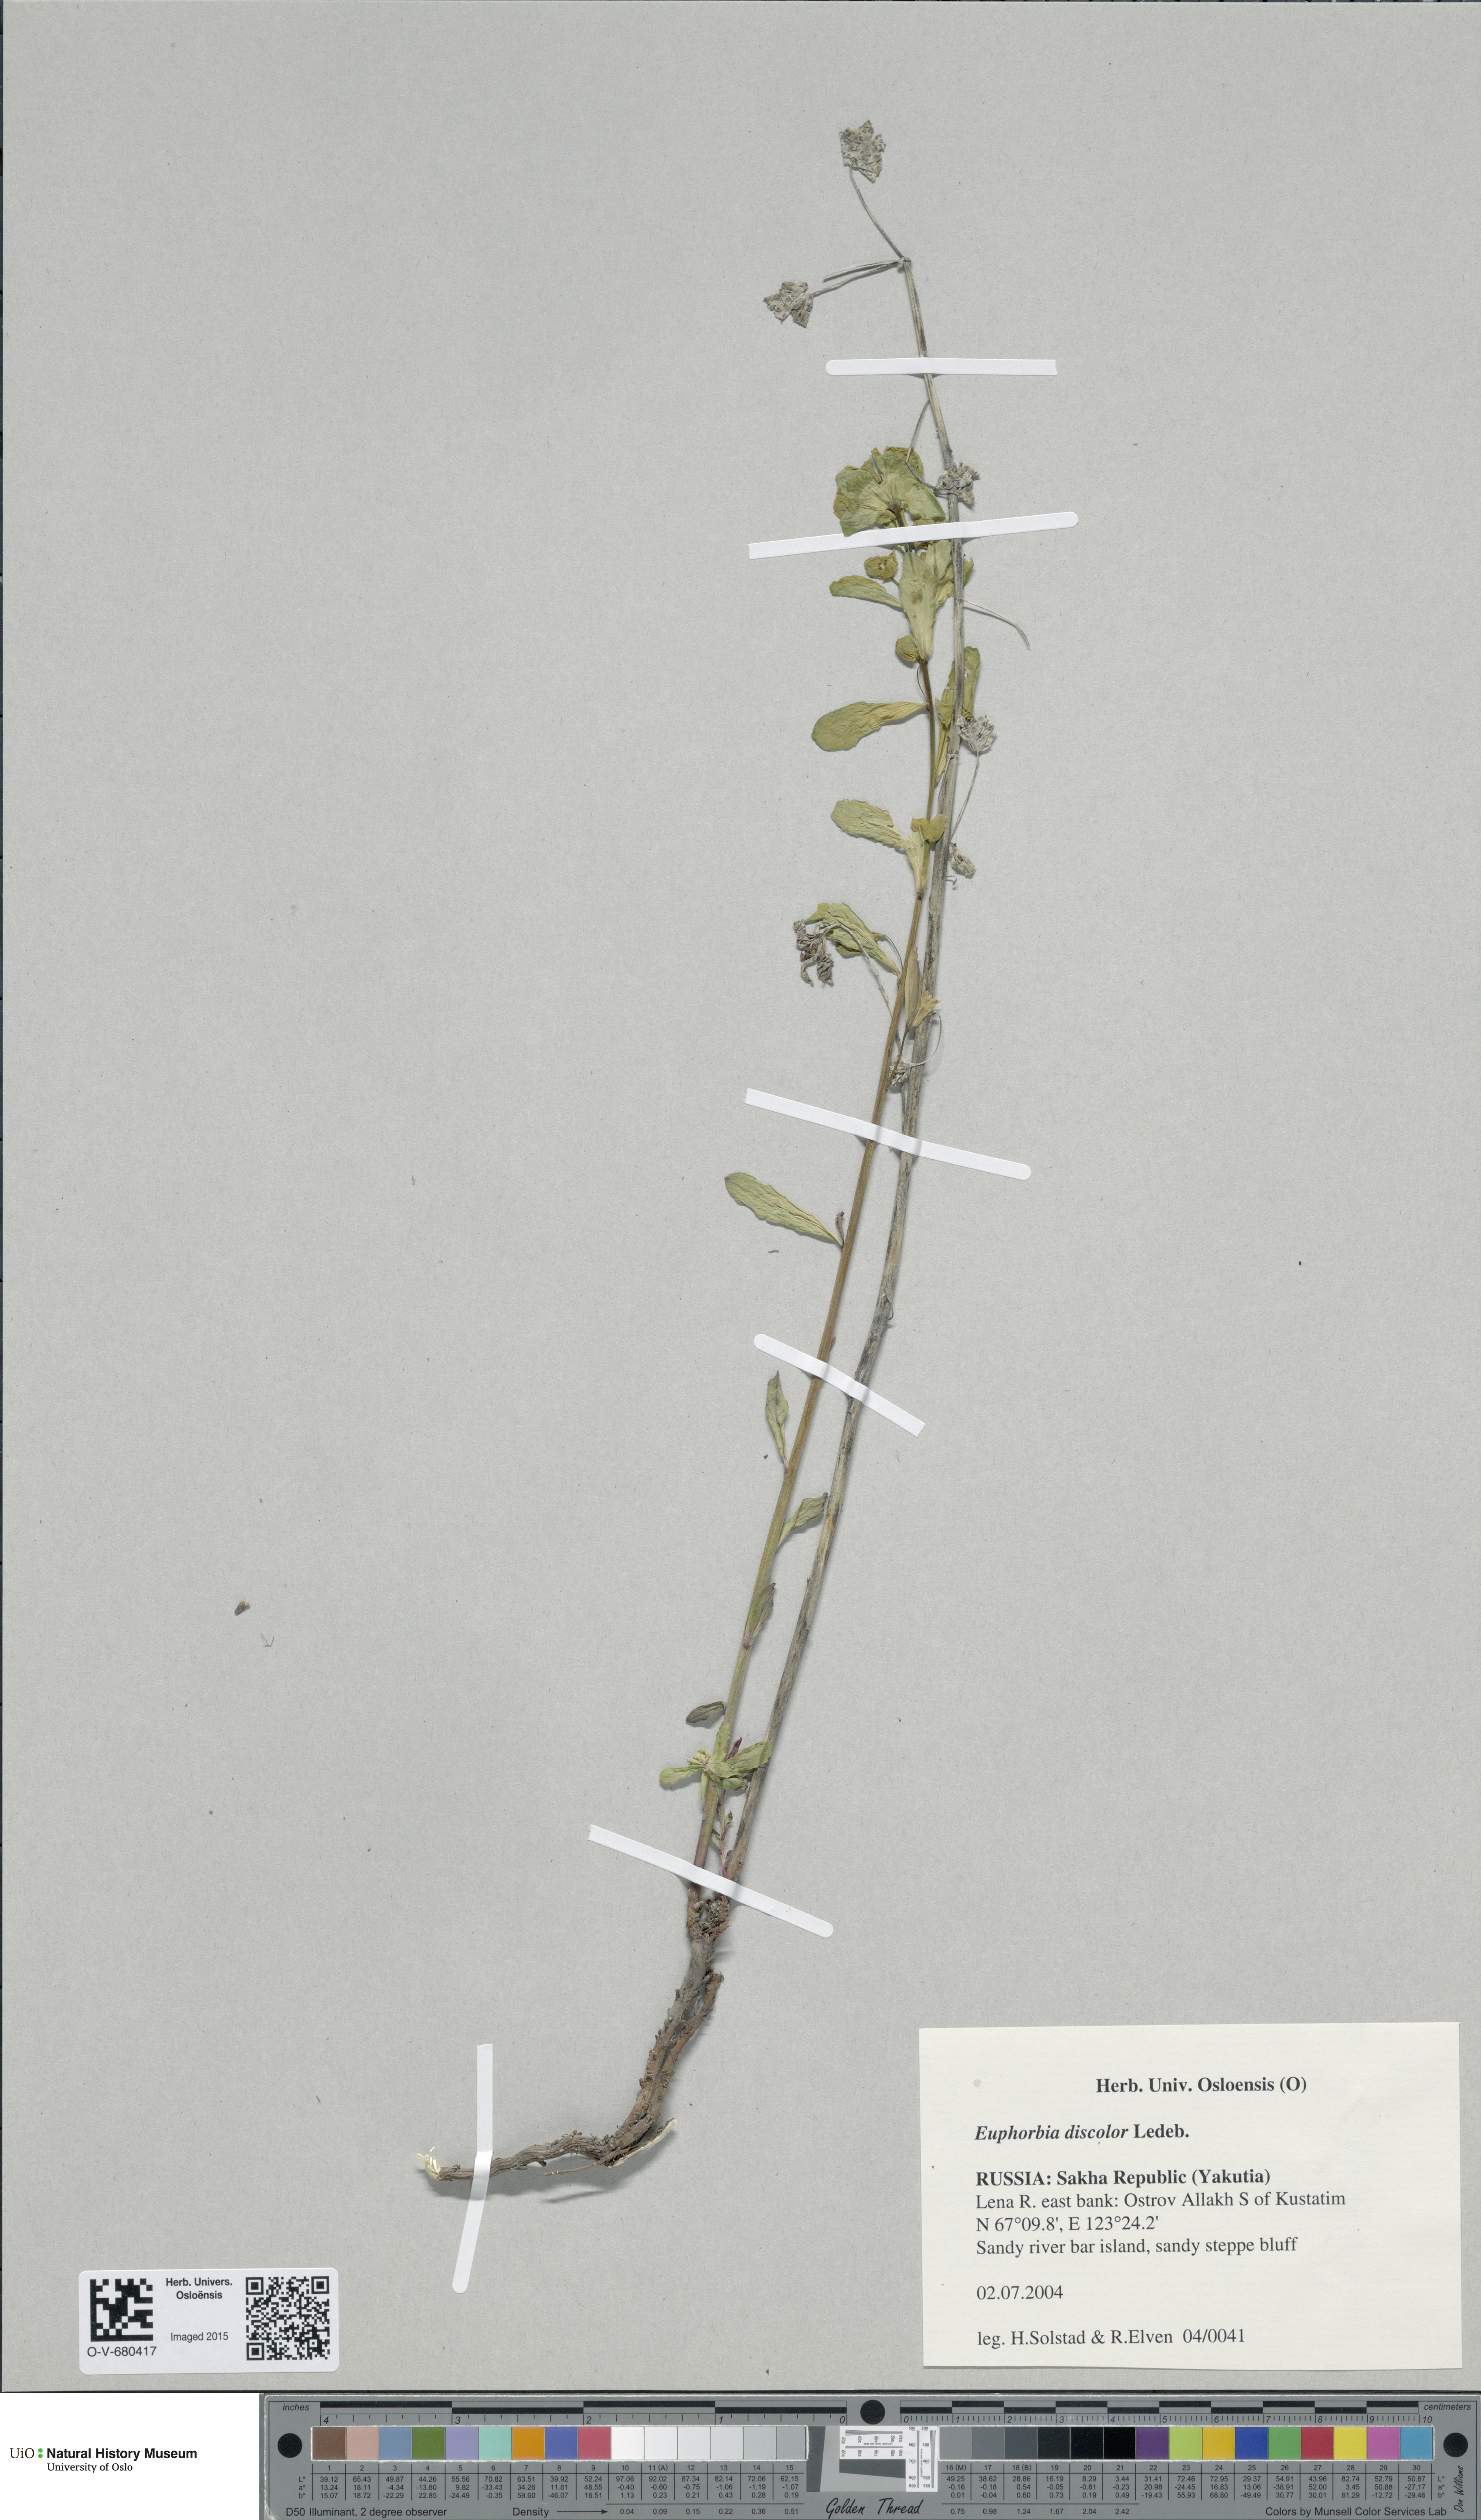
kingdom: Plantae
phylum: Tracheophyta
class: Magnoliopsida
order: Malpighiales
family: Euphorbiaceae
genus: Euphorbia
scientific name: Euphorbia esula
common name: Leafy spurge
